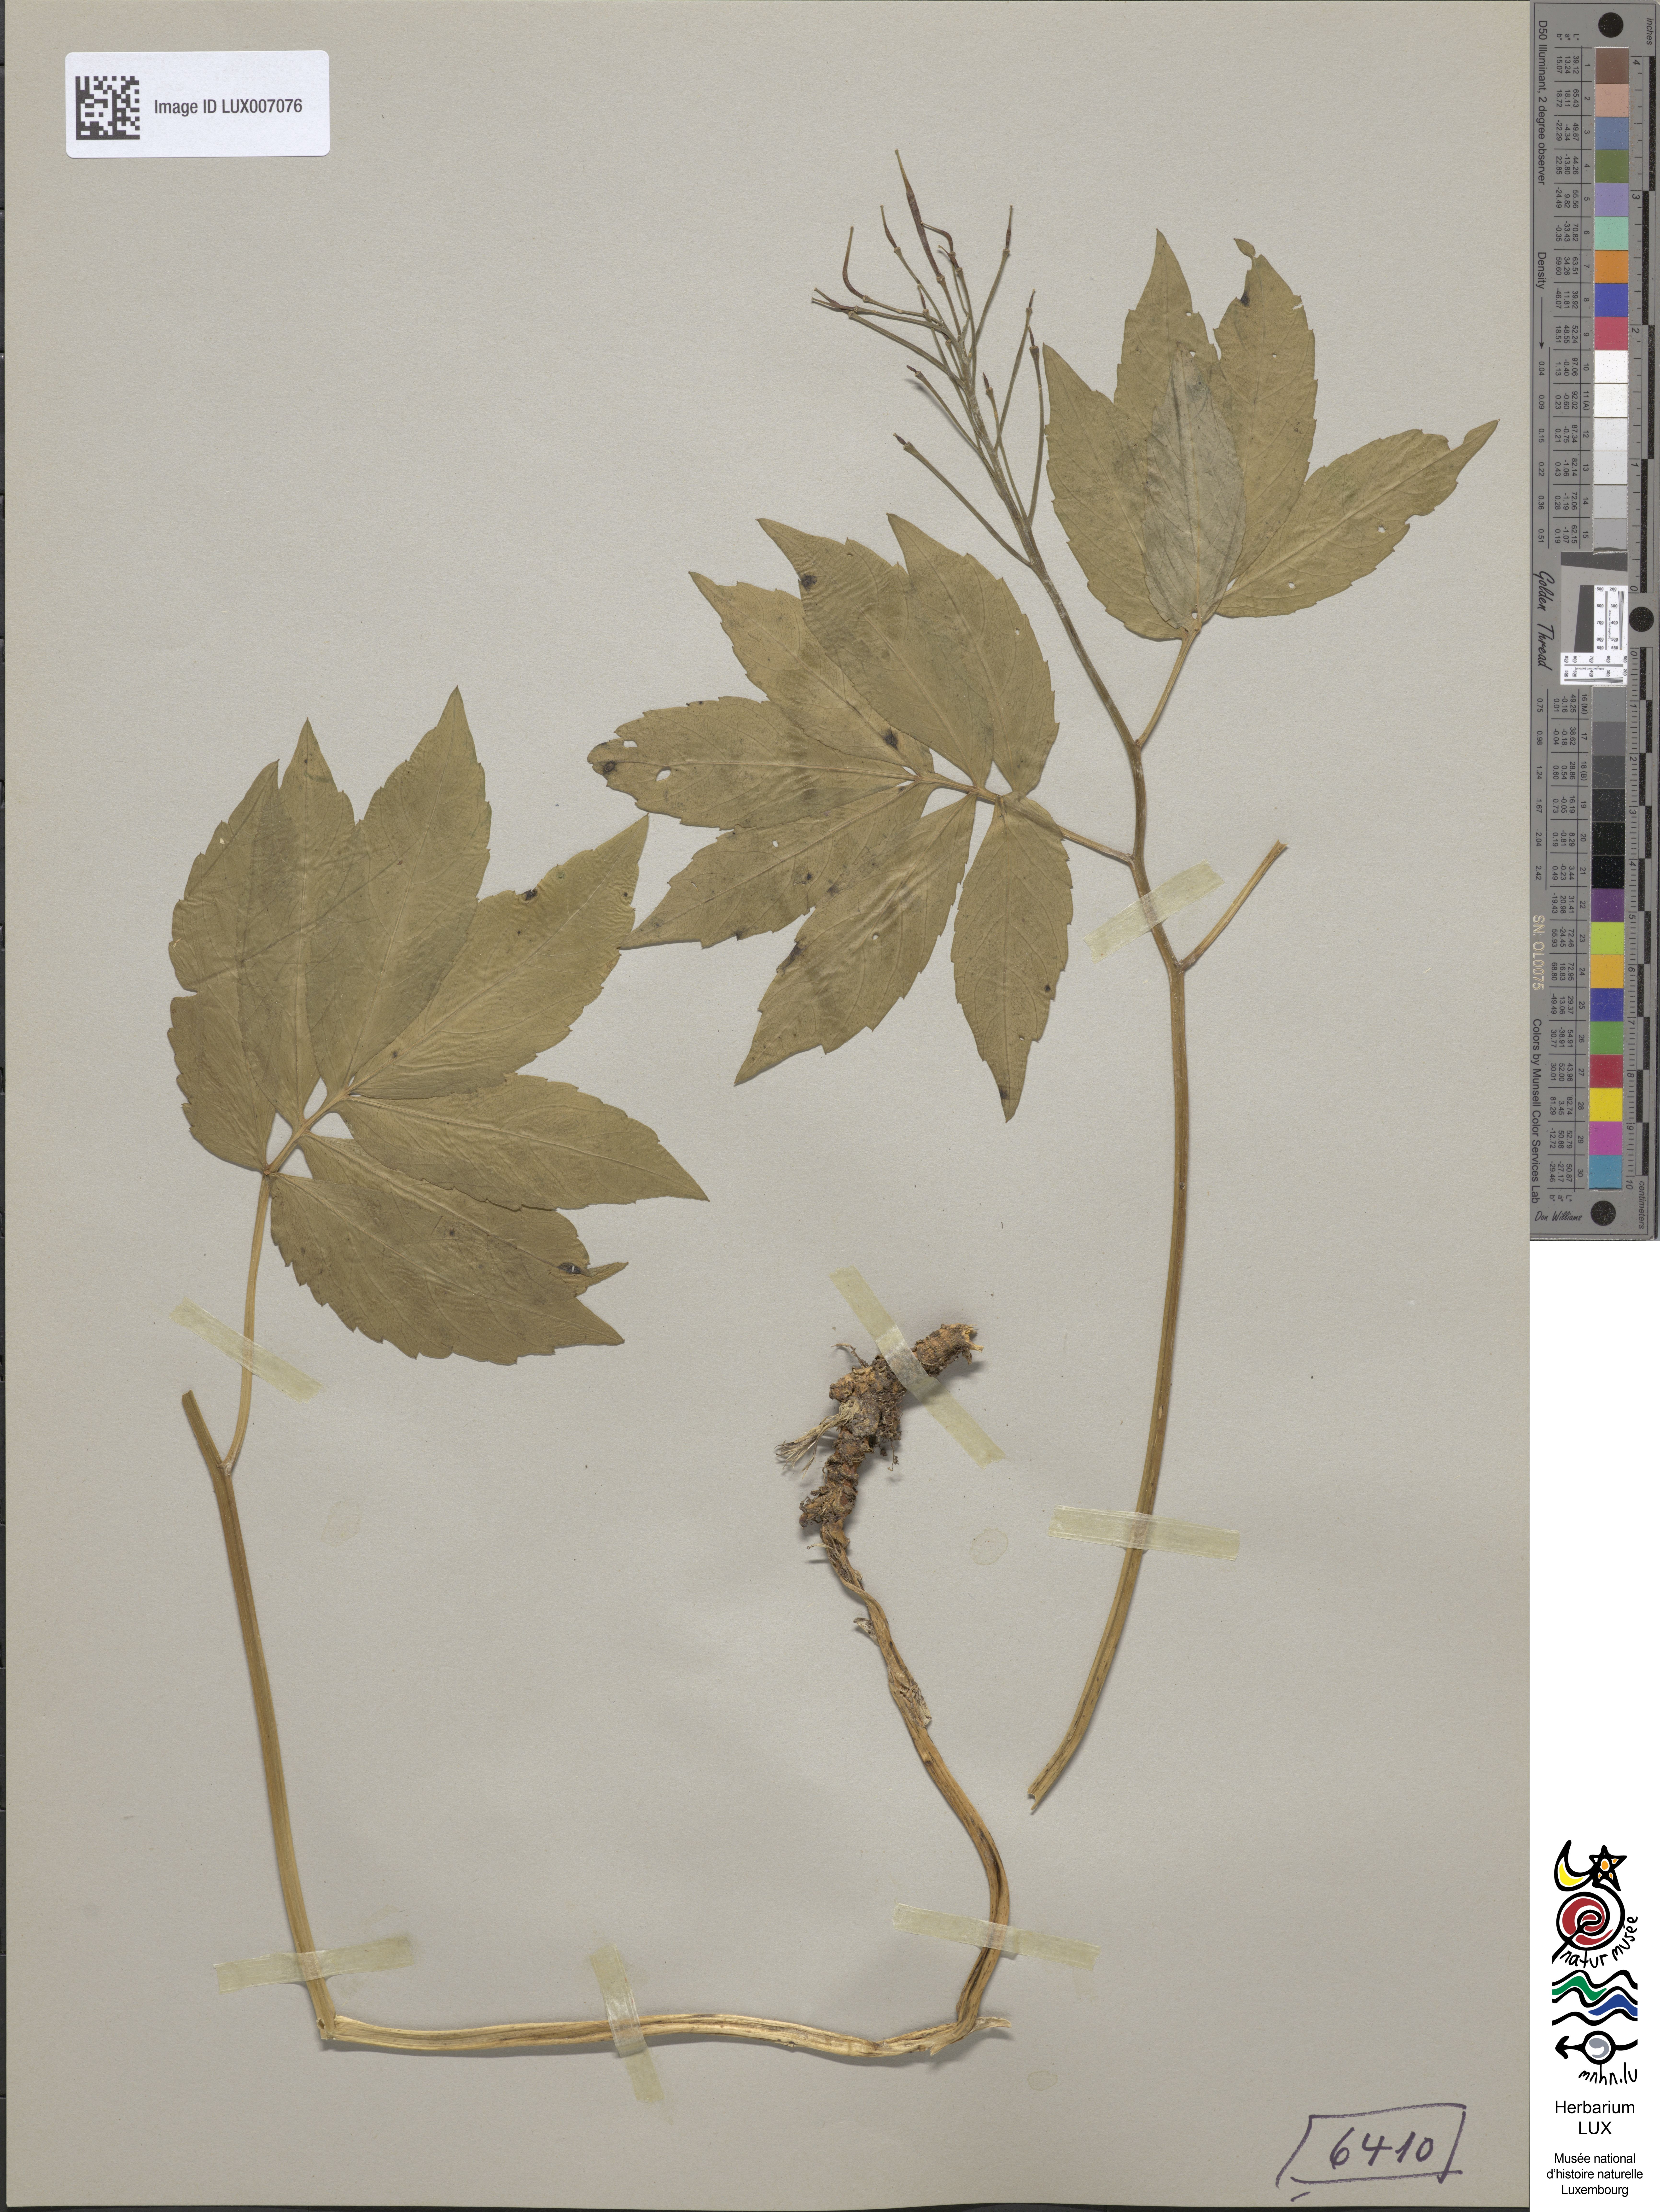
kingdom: Plantae
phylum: Tracheophyta
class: Magnoliopsida
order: Brassicales
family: Brassicaceae
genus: Cardamine
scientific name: Cardamine heptaphylla
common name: Pinnate coralroot
